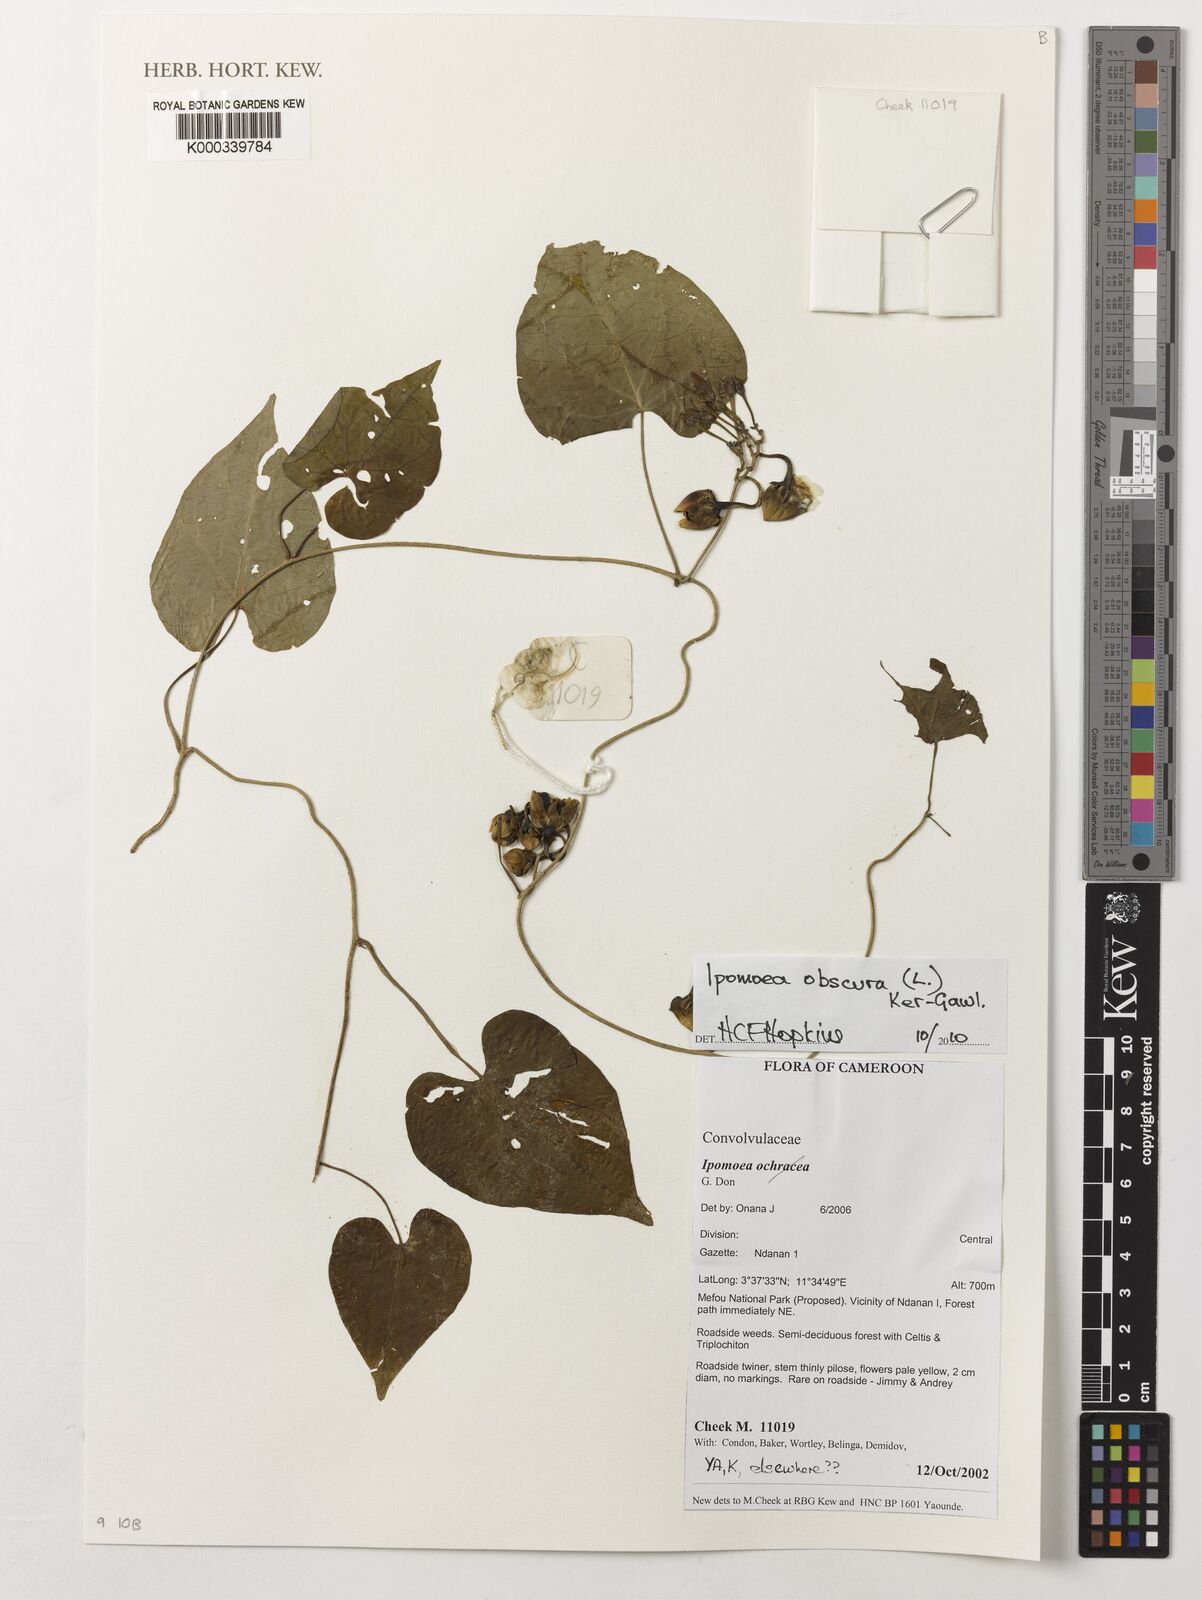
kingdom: Plantae
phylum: Tracheophyta
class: Magnoliopsida
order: Solanales
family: Convolvulaceae
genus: Ipomoea
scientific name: Ipomoea obscura
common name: Obscure morning-glory
